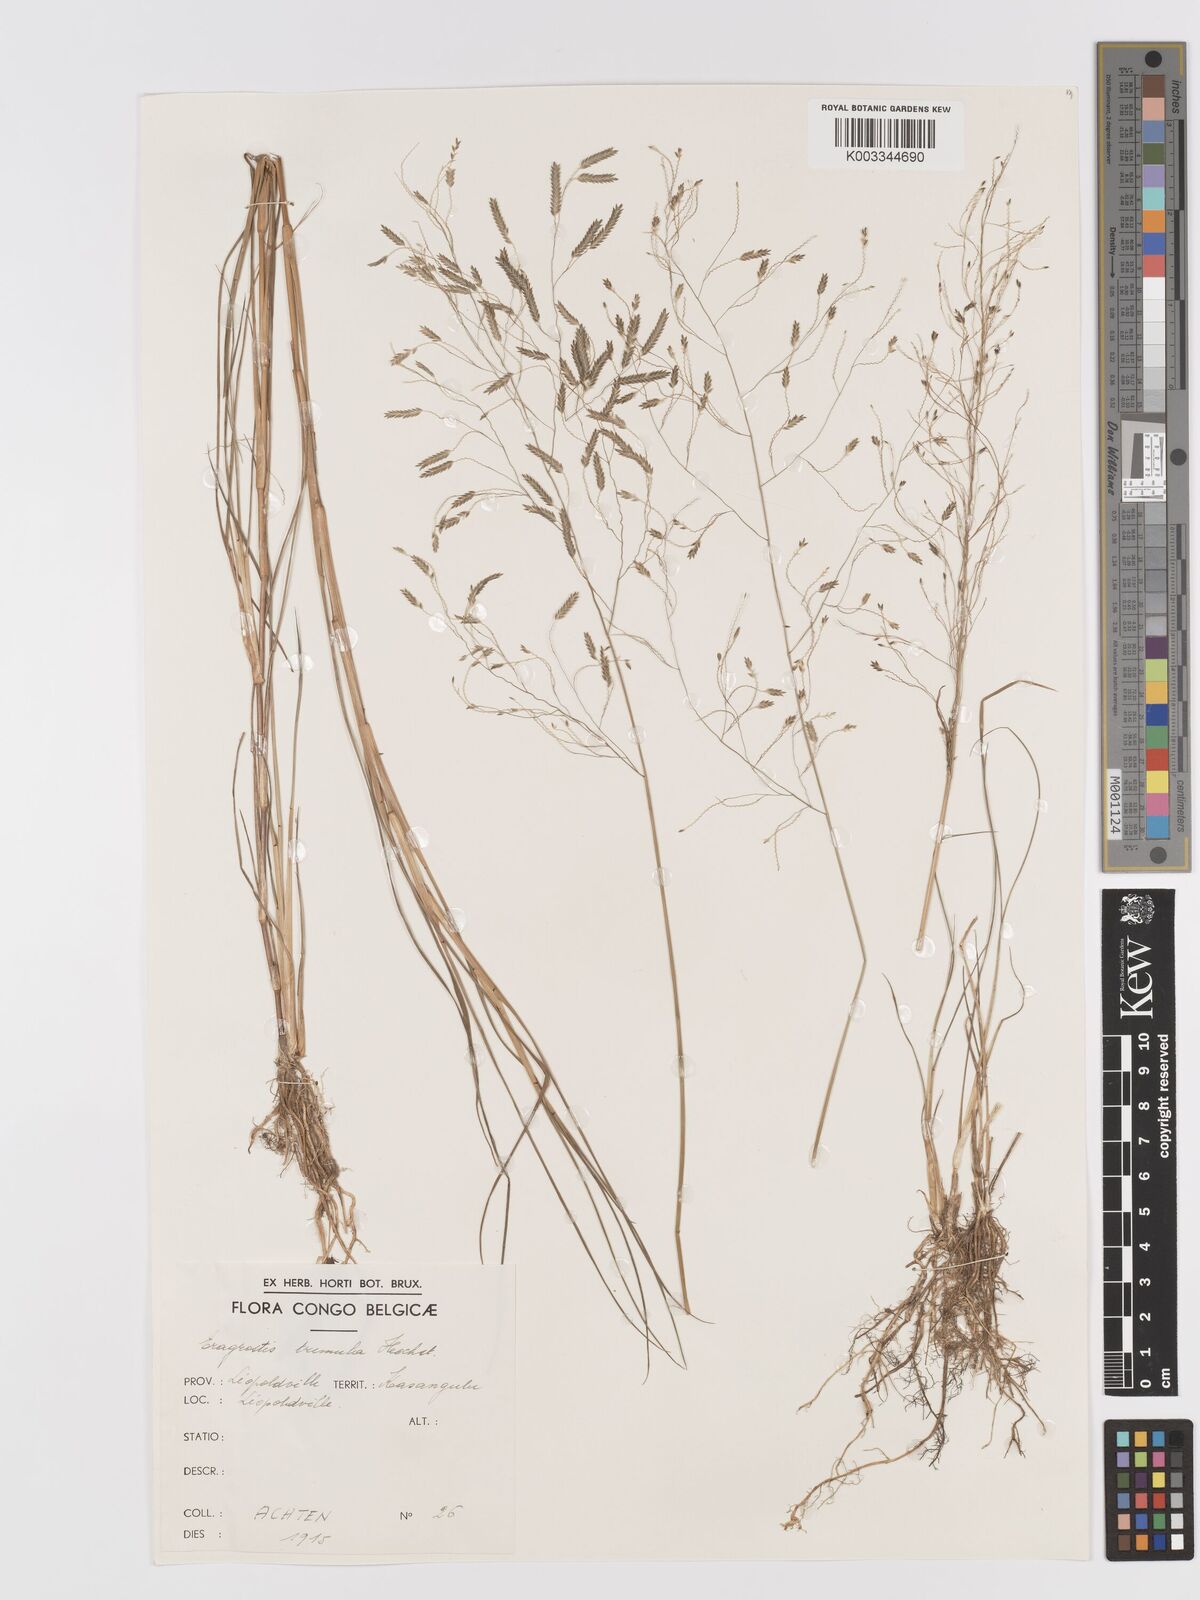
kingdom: Plantae
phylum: Tracheophyta
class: Liliopsida
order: Poales
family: Poaceae
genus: Eragrostis
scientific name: Eragrostis atrovirens
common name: Thalia lovegrass
